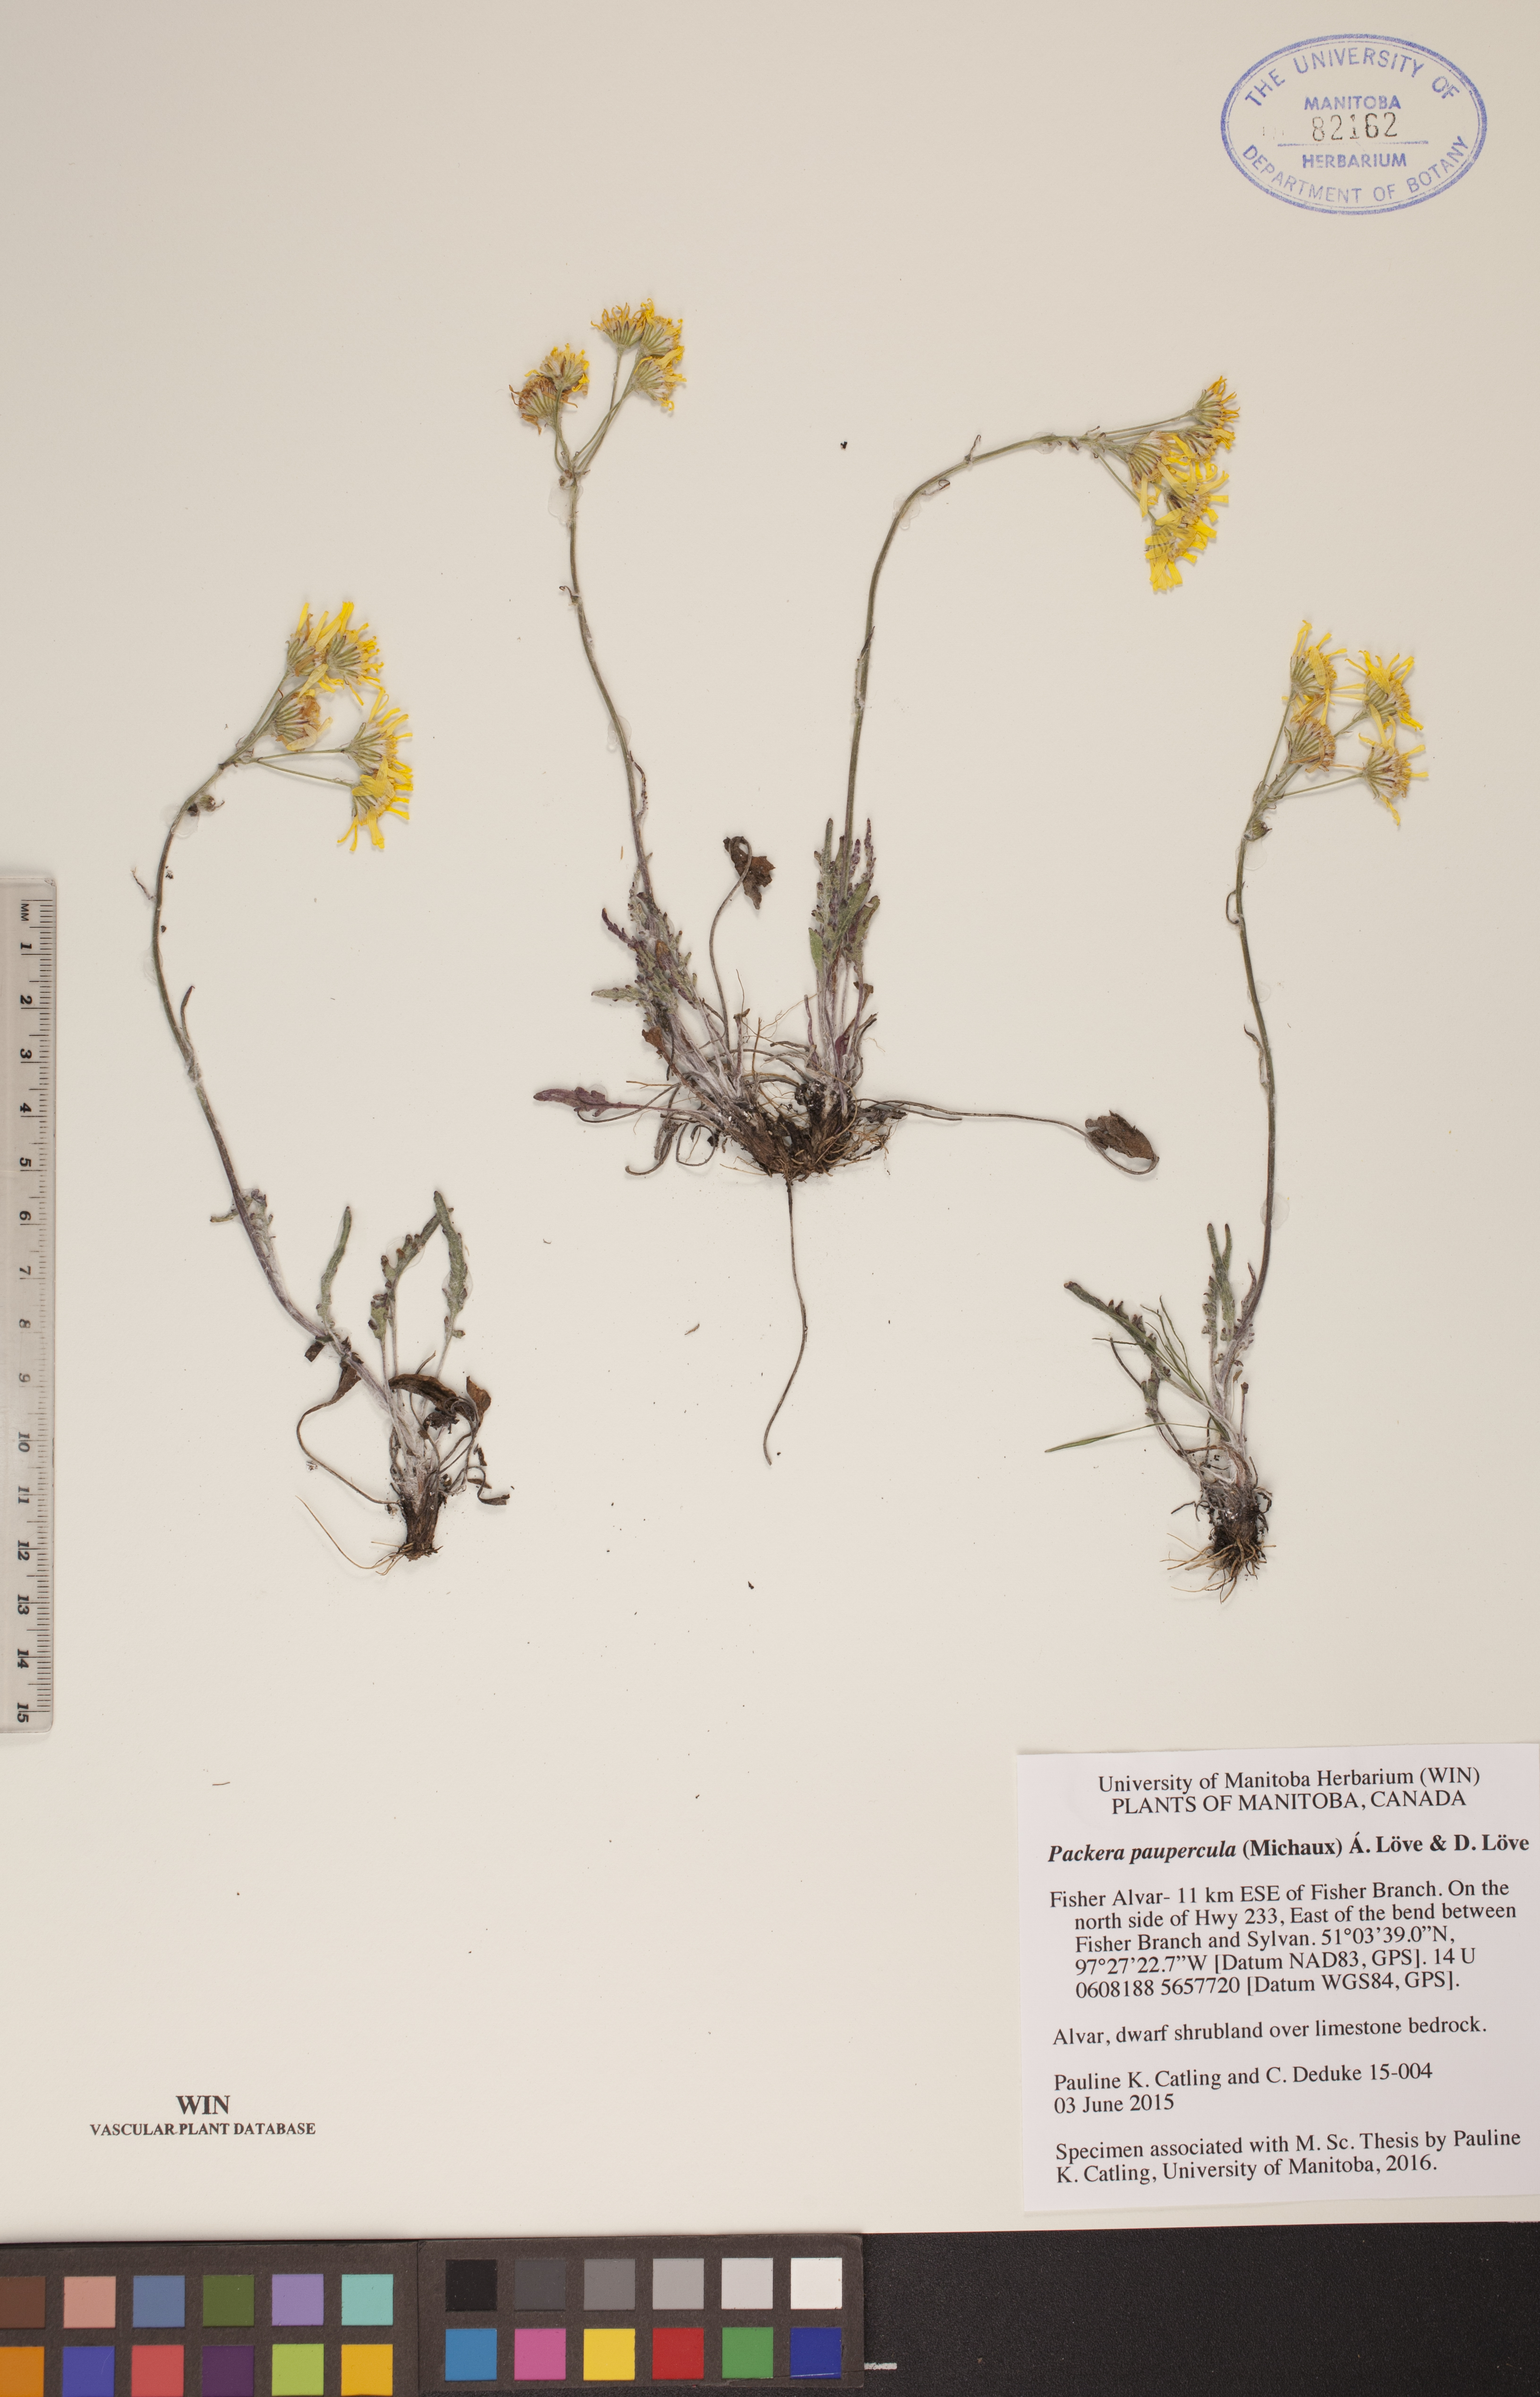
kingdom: Plantae
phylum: Tracheophyta
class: Magnoliopsida
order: Asterales
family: Asteraceae
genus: Packera
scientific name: Packera paupercula
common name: Balsam groundsel
